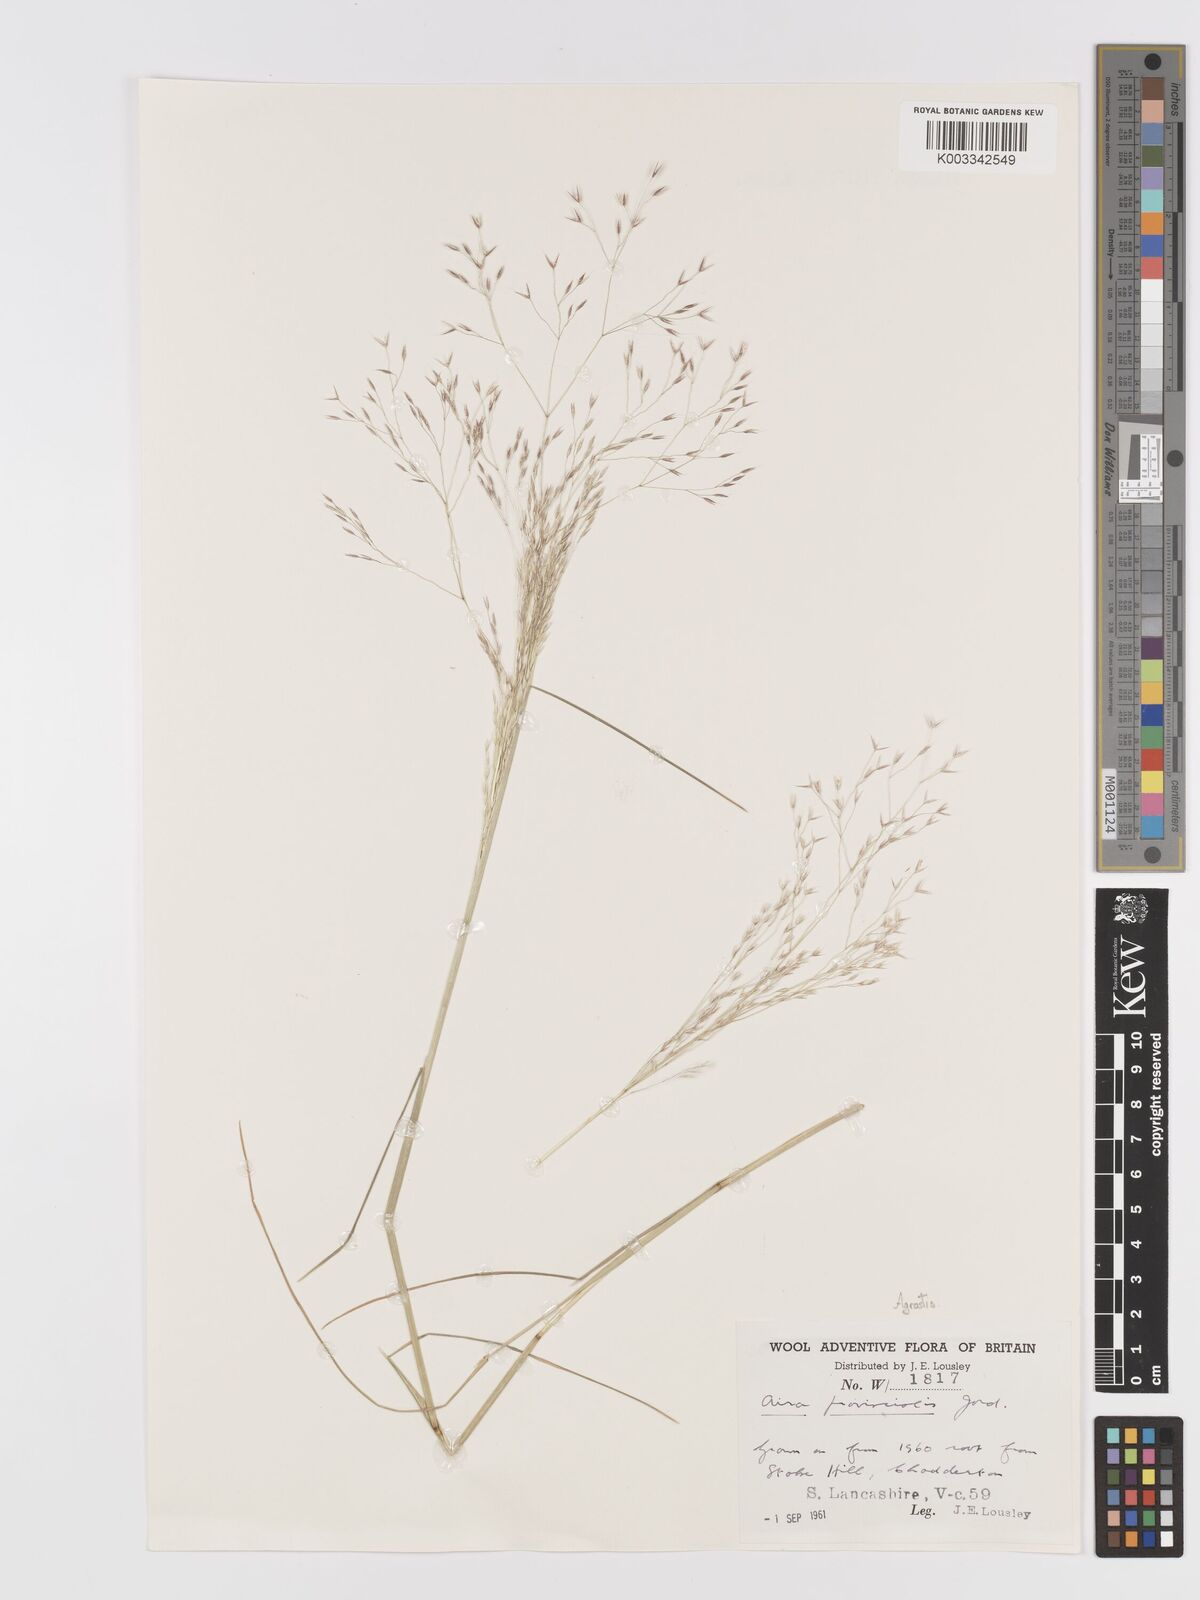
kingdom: Plantae
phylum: Tracheophyta
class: Liliopsida
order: Poales
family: Poaceae
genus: Agrostis
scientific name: Agrostis
